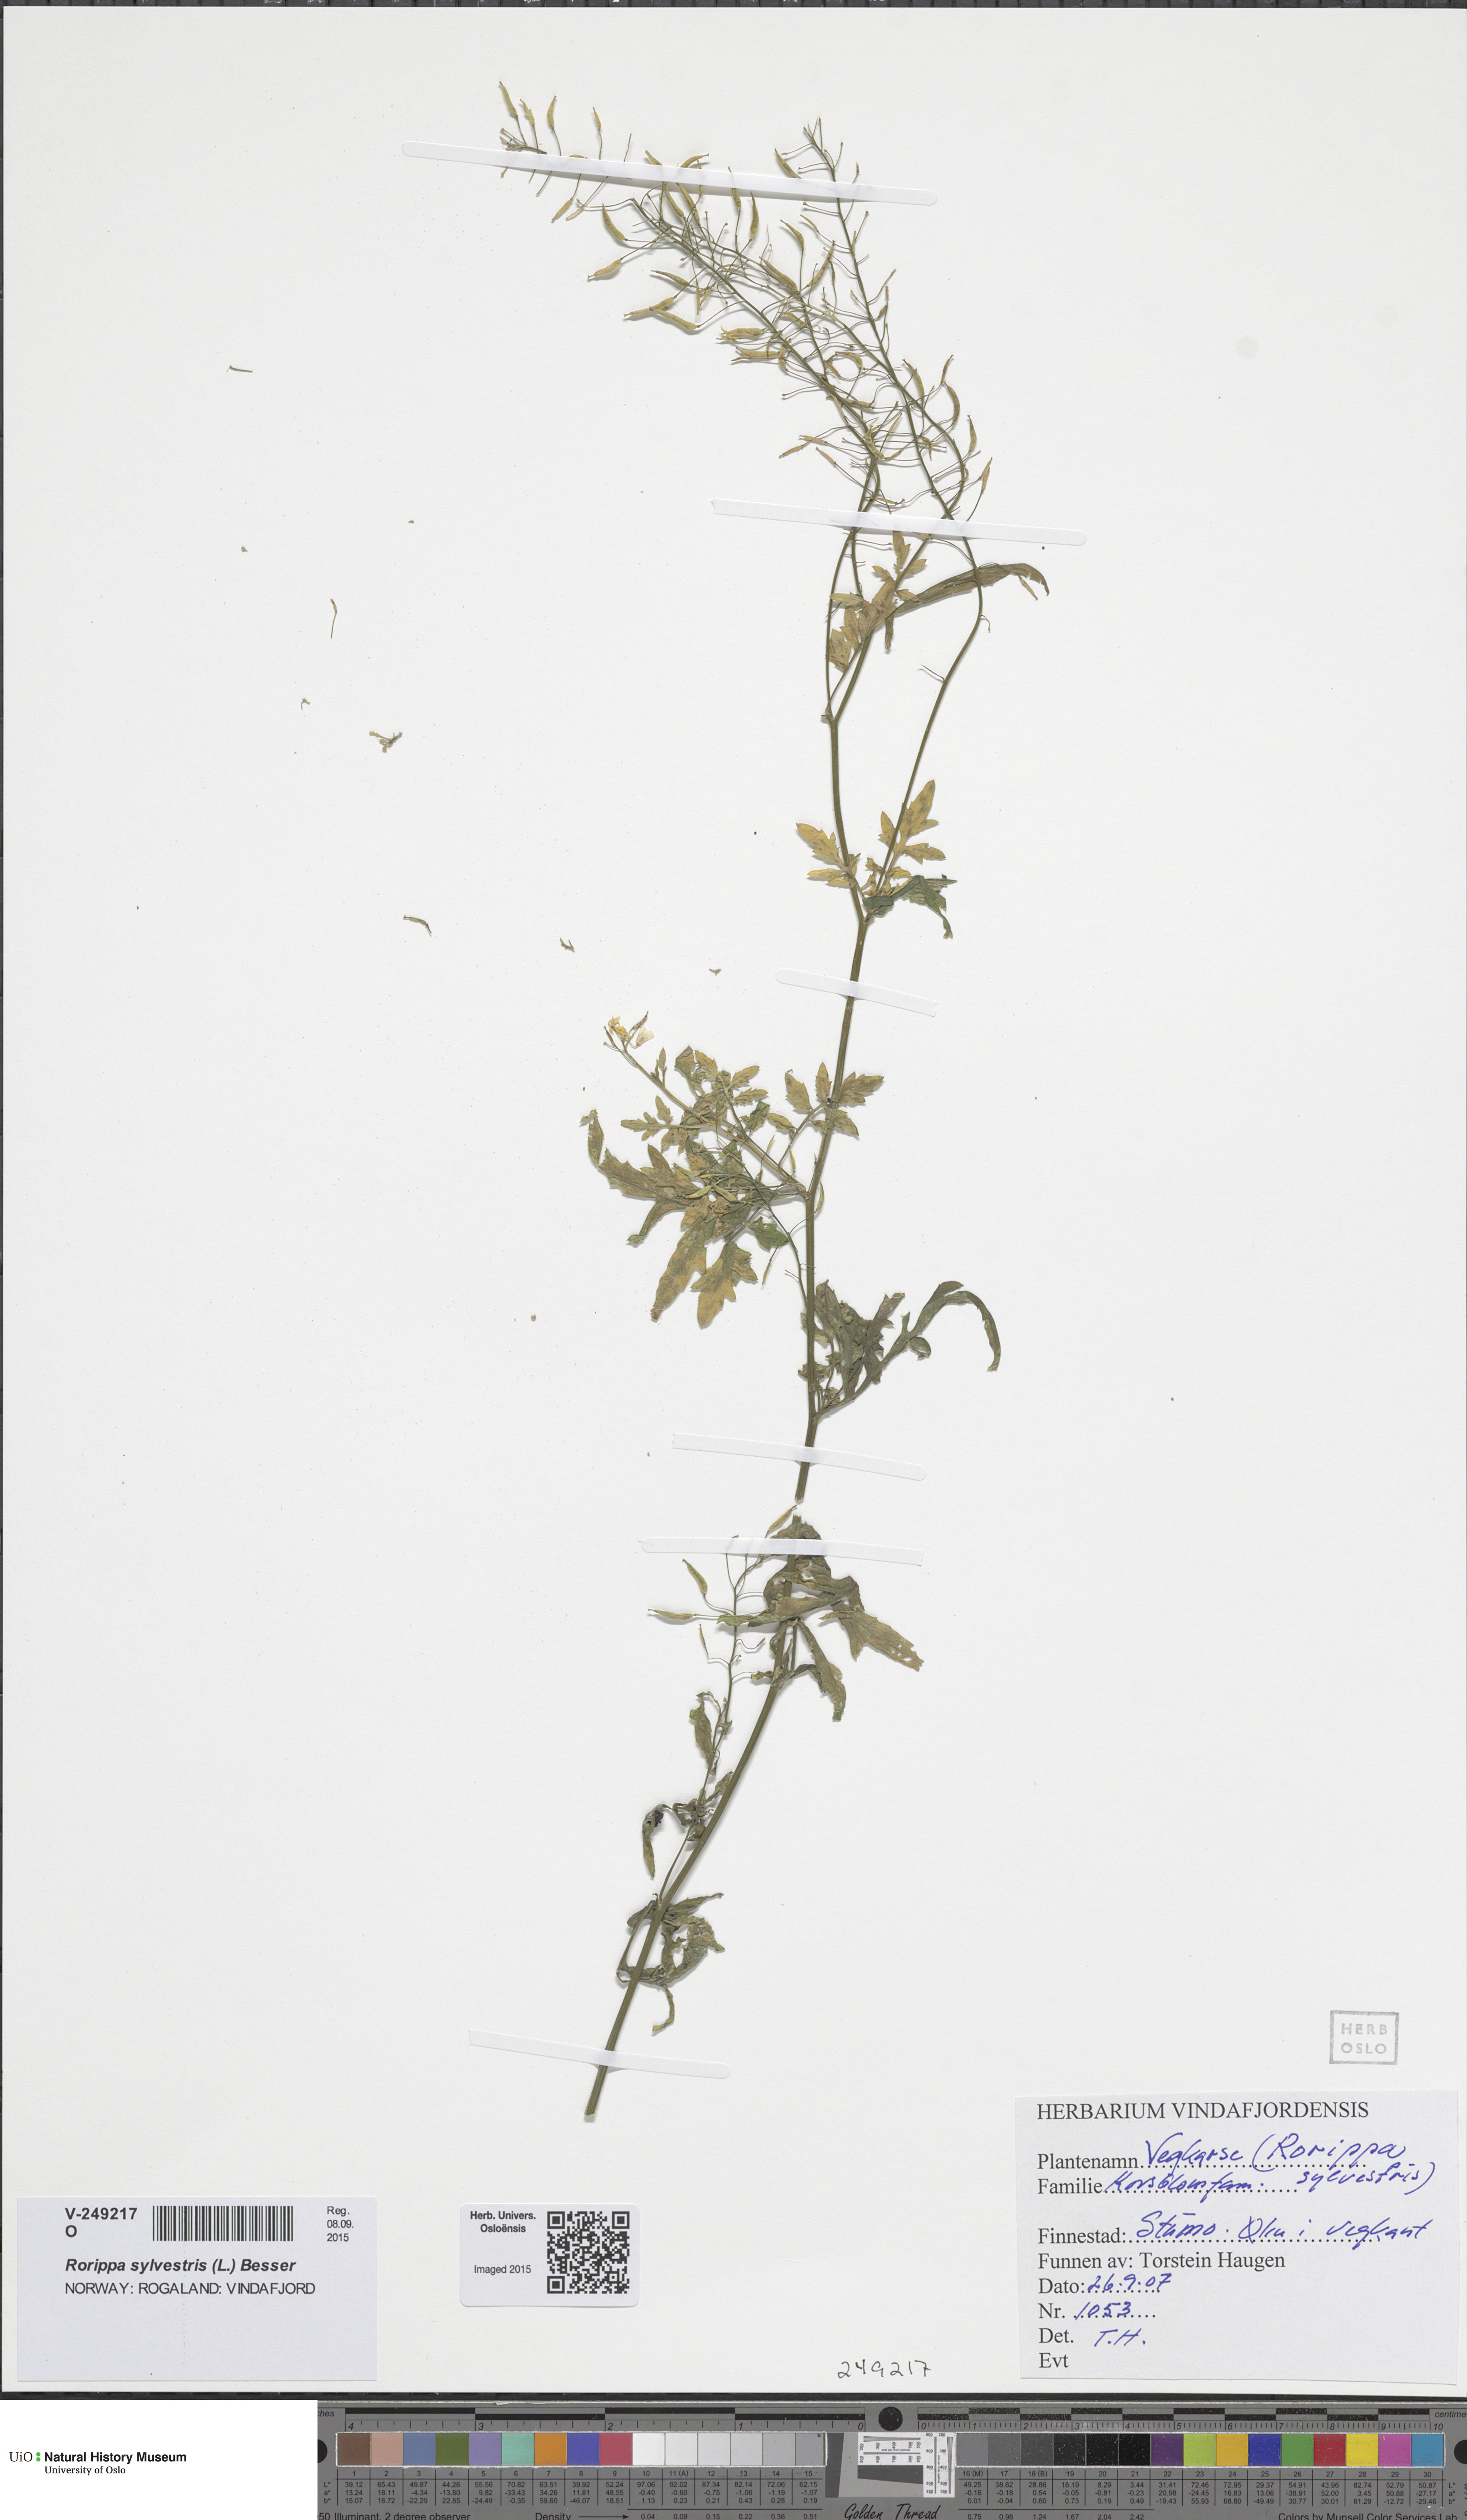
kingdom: Plantae
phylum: Tracheophyta
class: Magnoliopsida
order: Brassicales
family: Brassicaceae
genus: Rorippa
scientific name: Rorippa sylvestris
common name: Creeping yellowcress
